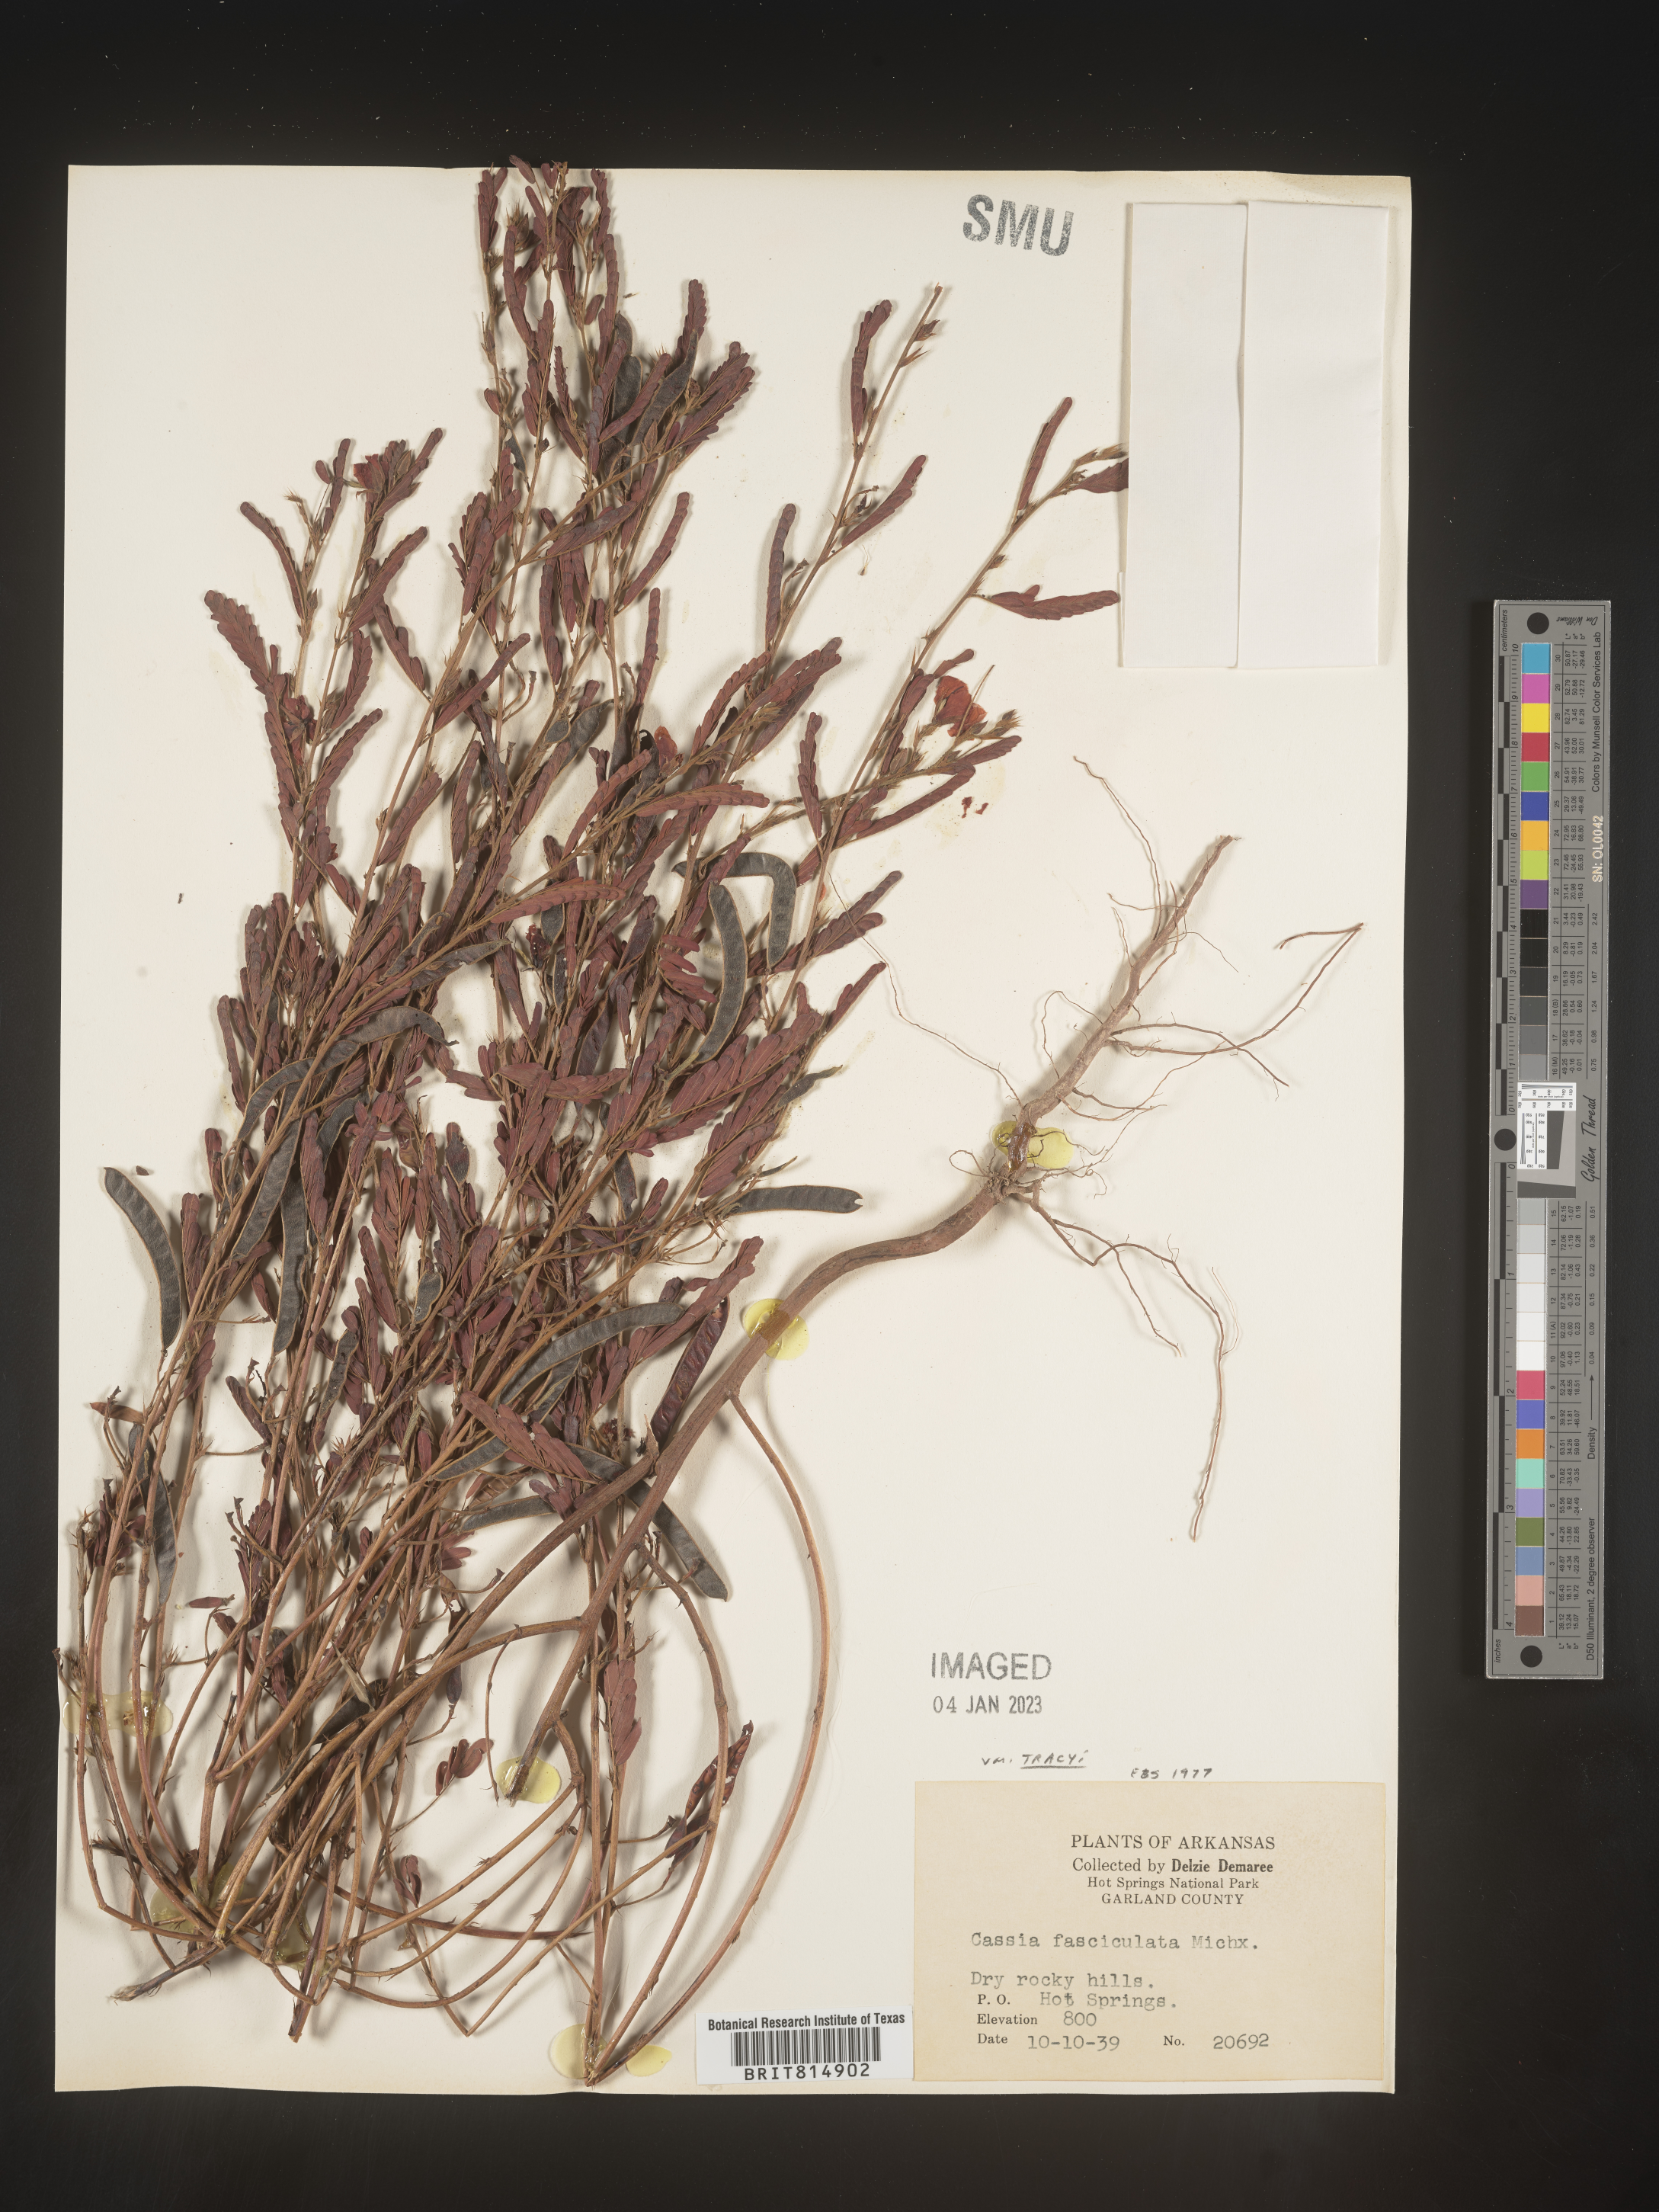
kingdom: Plantae
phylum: Tracheophyta
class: Magnoliopsida
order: Fabales
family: Fabaceae
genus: Chamaecrista
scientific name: Chamaecrista fasciculata
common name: Golden cassia
